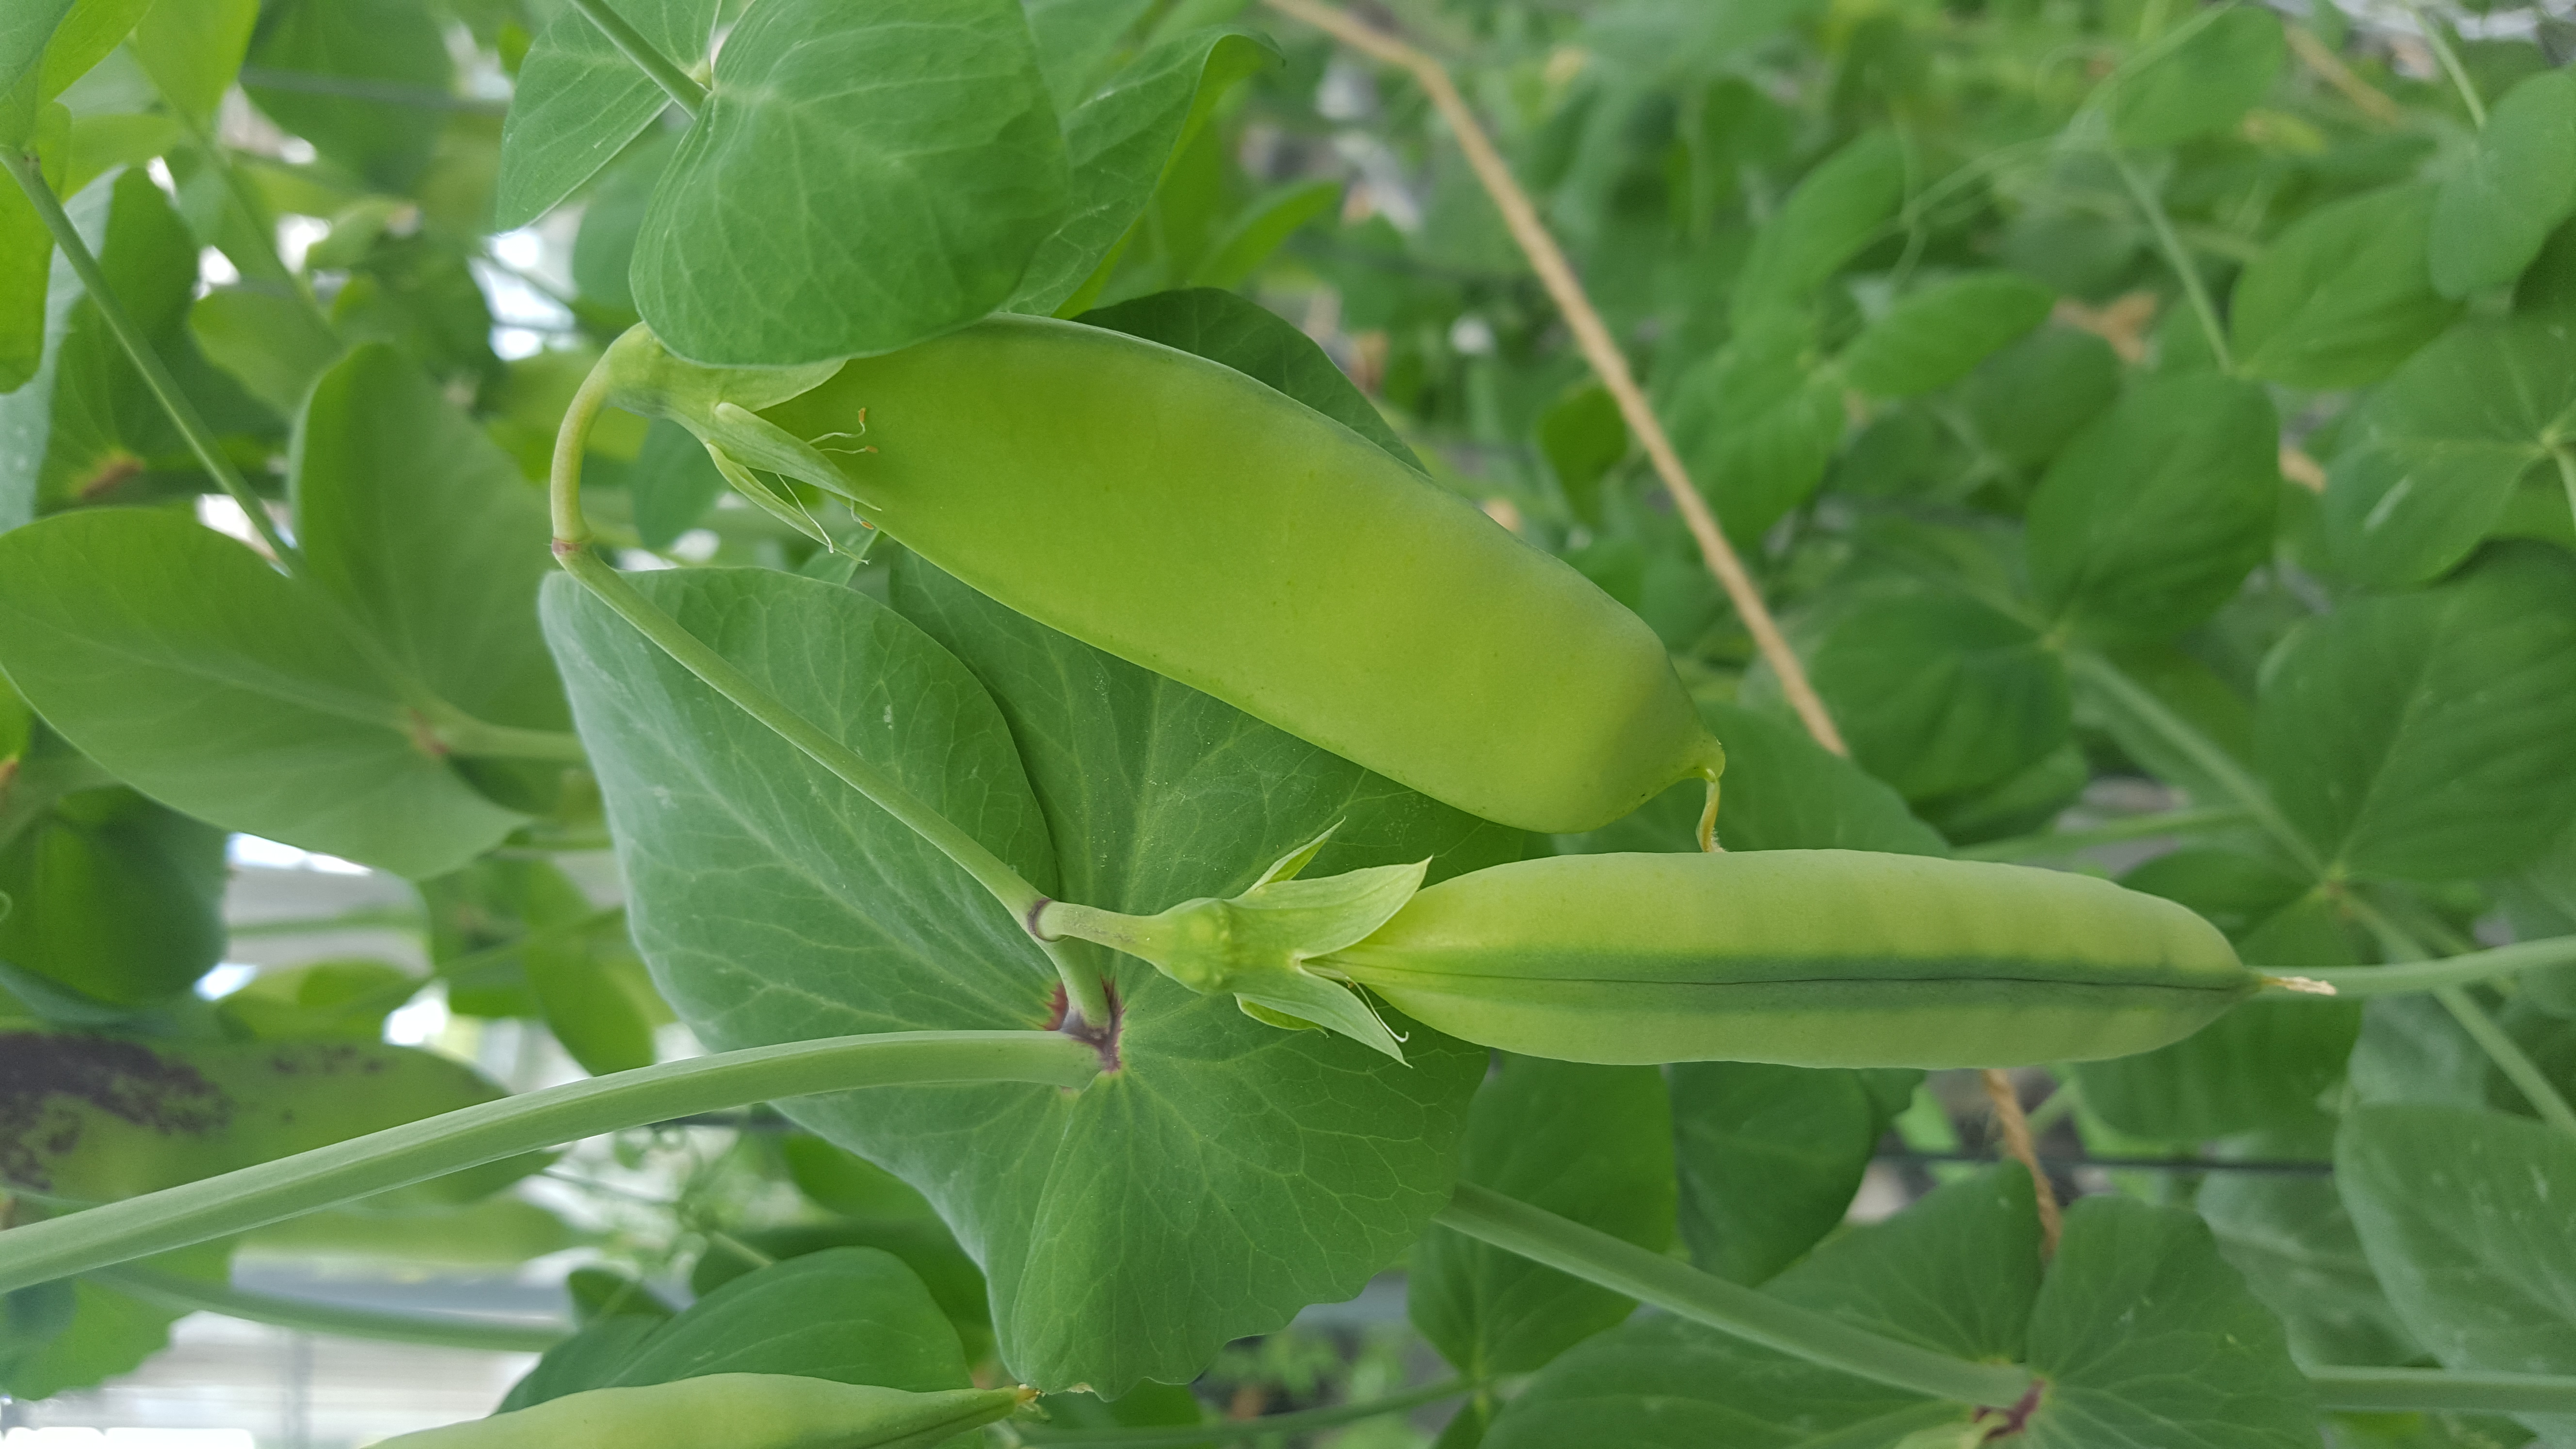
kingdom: Plantae
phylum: Tracheophyta
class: Magnoliopsida
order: Fabales
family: Fabaceae
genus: Lathyrus
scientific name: Lathyrus oleraceus
